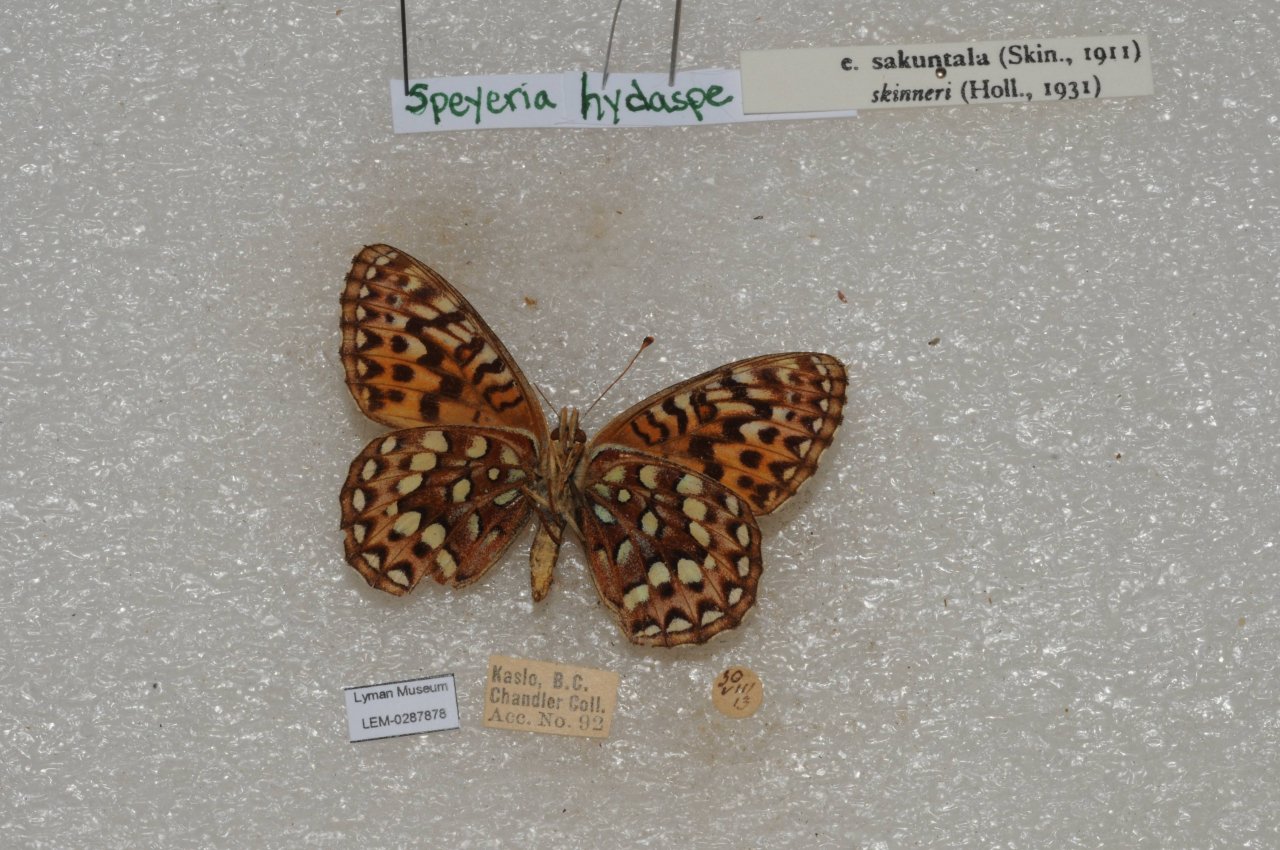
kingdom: Animalia
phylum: Arthropoda
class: Insecta
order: Lepidoptera
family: Nymphalidae
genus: Speyeria
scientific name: Speyeria hydaspe
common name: Hydaspe Fritillary
